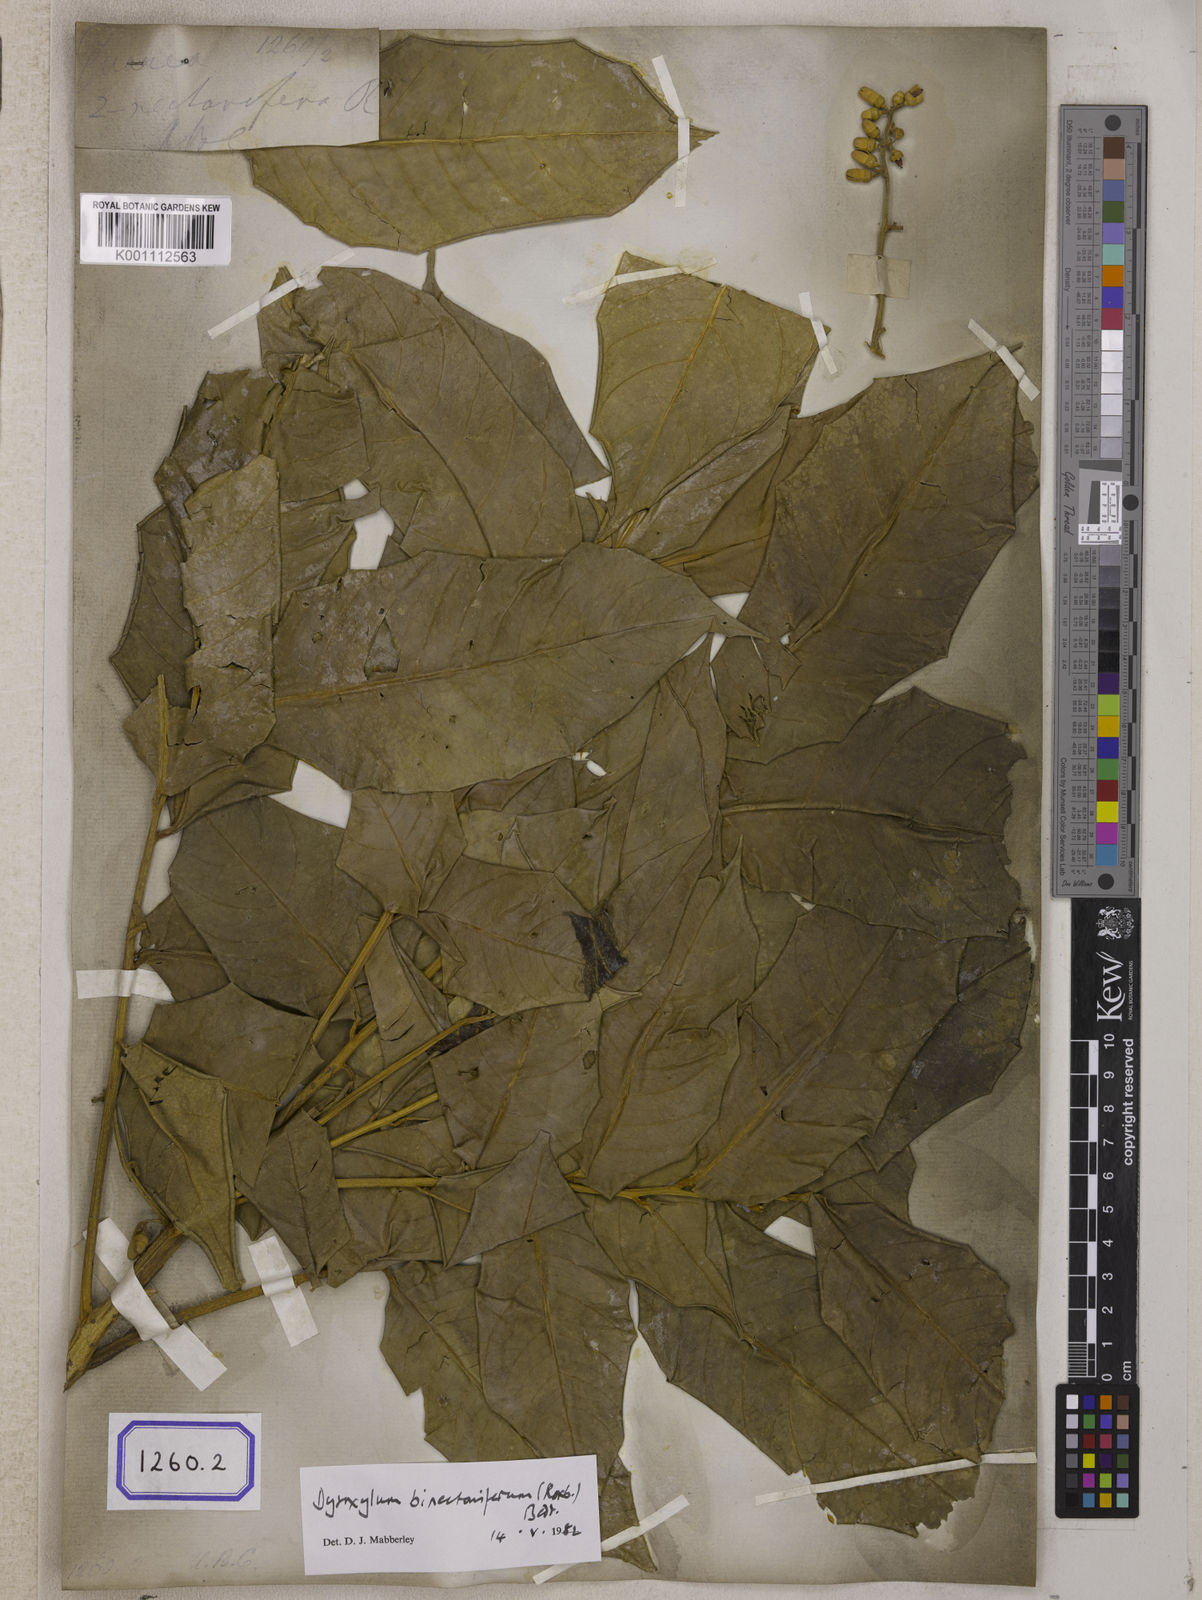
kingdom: Plantae
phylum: Tracheophyta
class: Magnoliopsida
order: Sapindales
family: Meliaceae
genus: Dysoxylum
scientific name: Dysoxylum gotadhora
